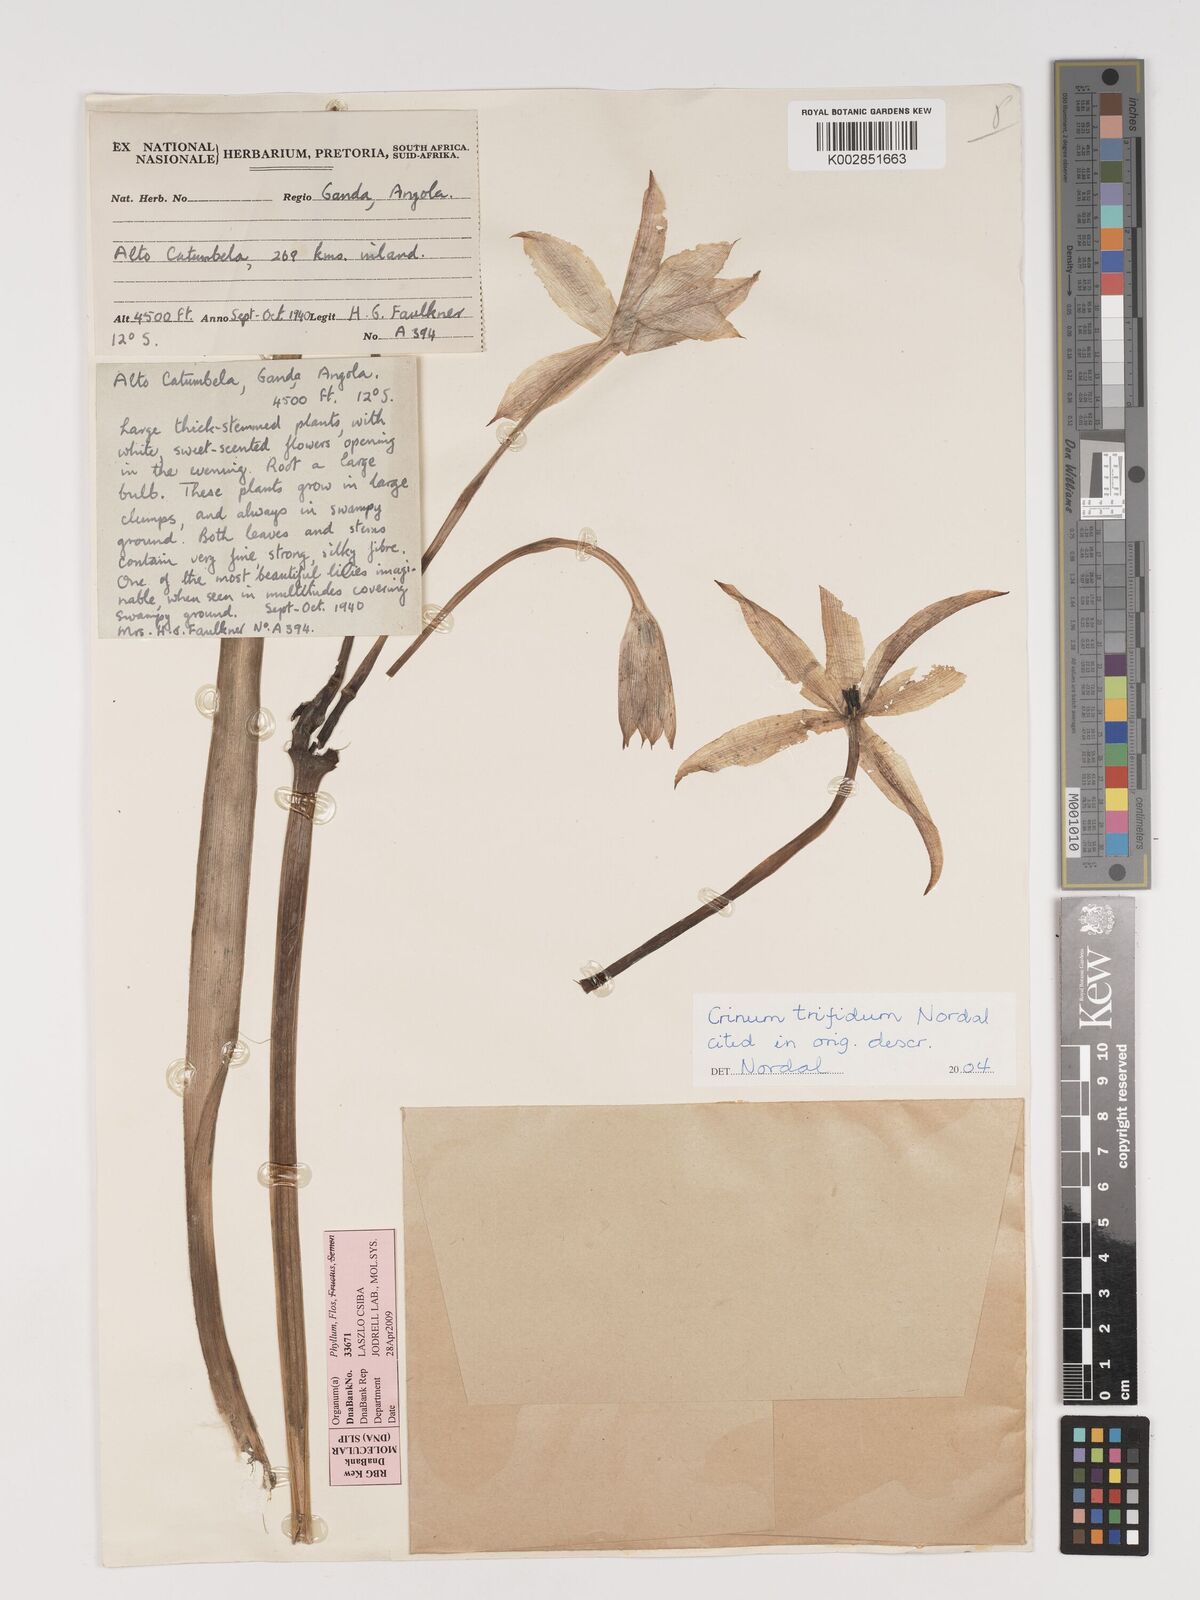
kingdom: Plantae
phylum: Tracheophyta
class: Liliopsida
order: Asparagales
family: Amaryllidaceae
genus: Crinum
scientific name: Crinum trifidum
